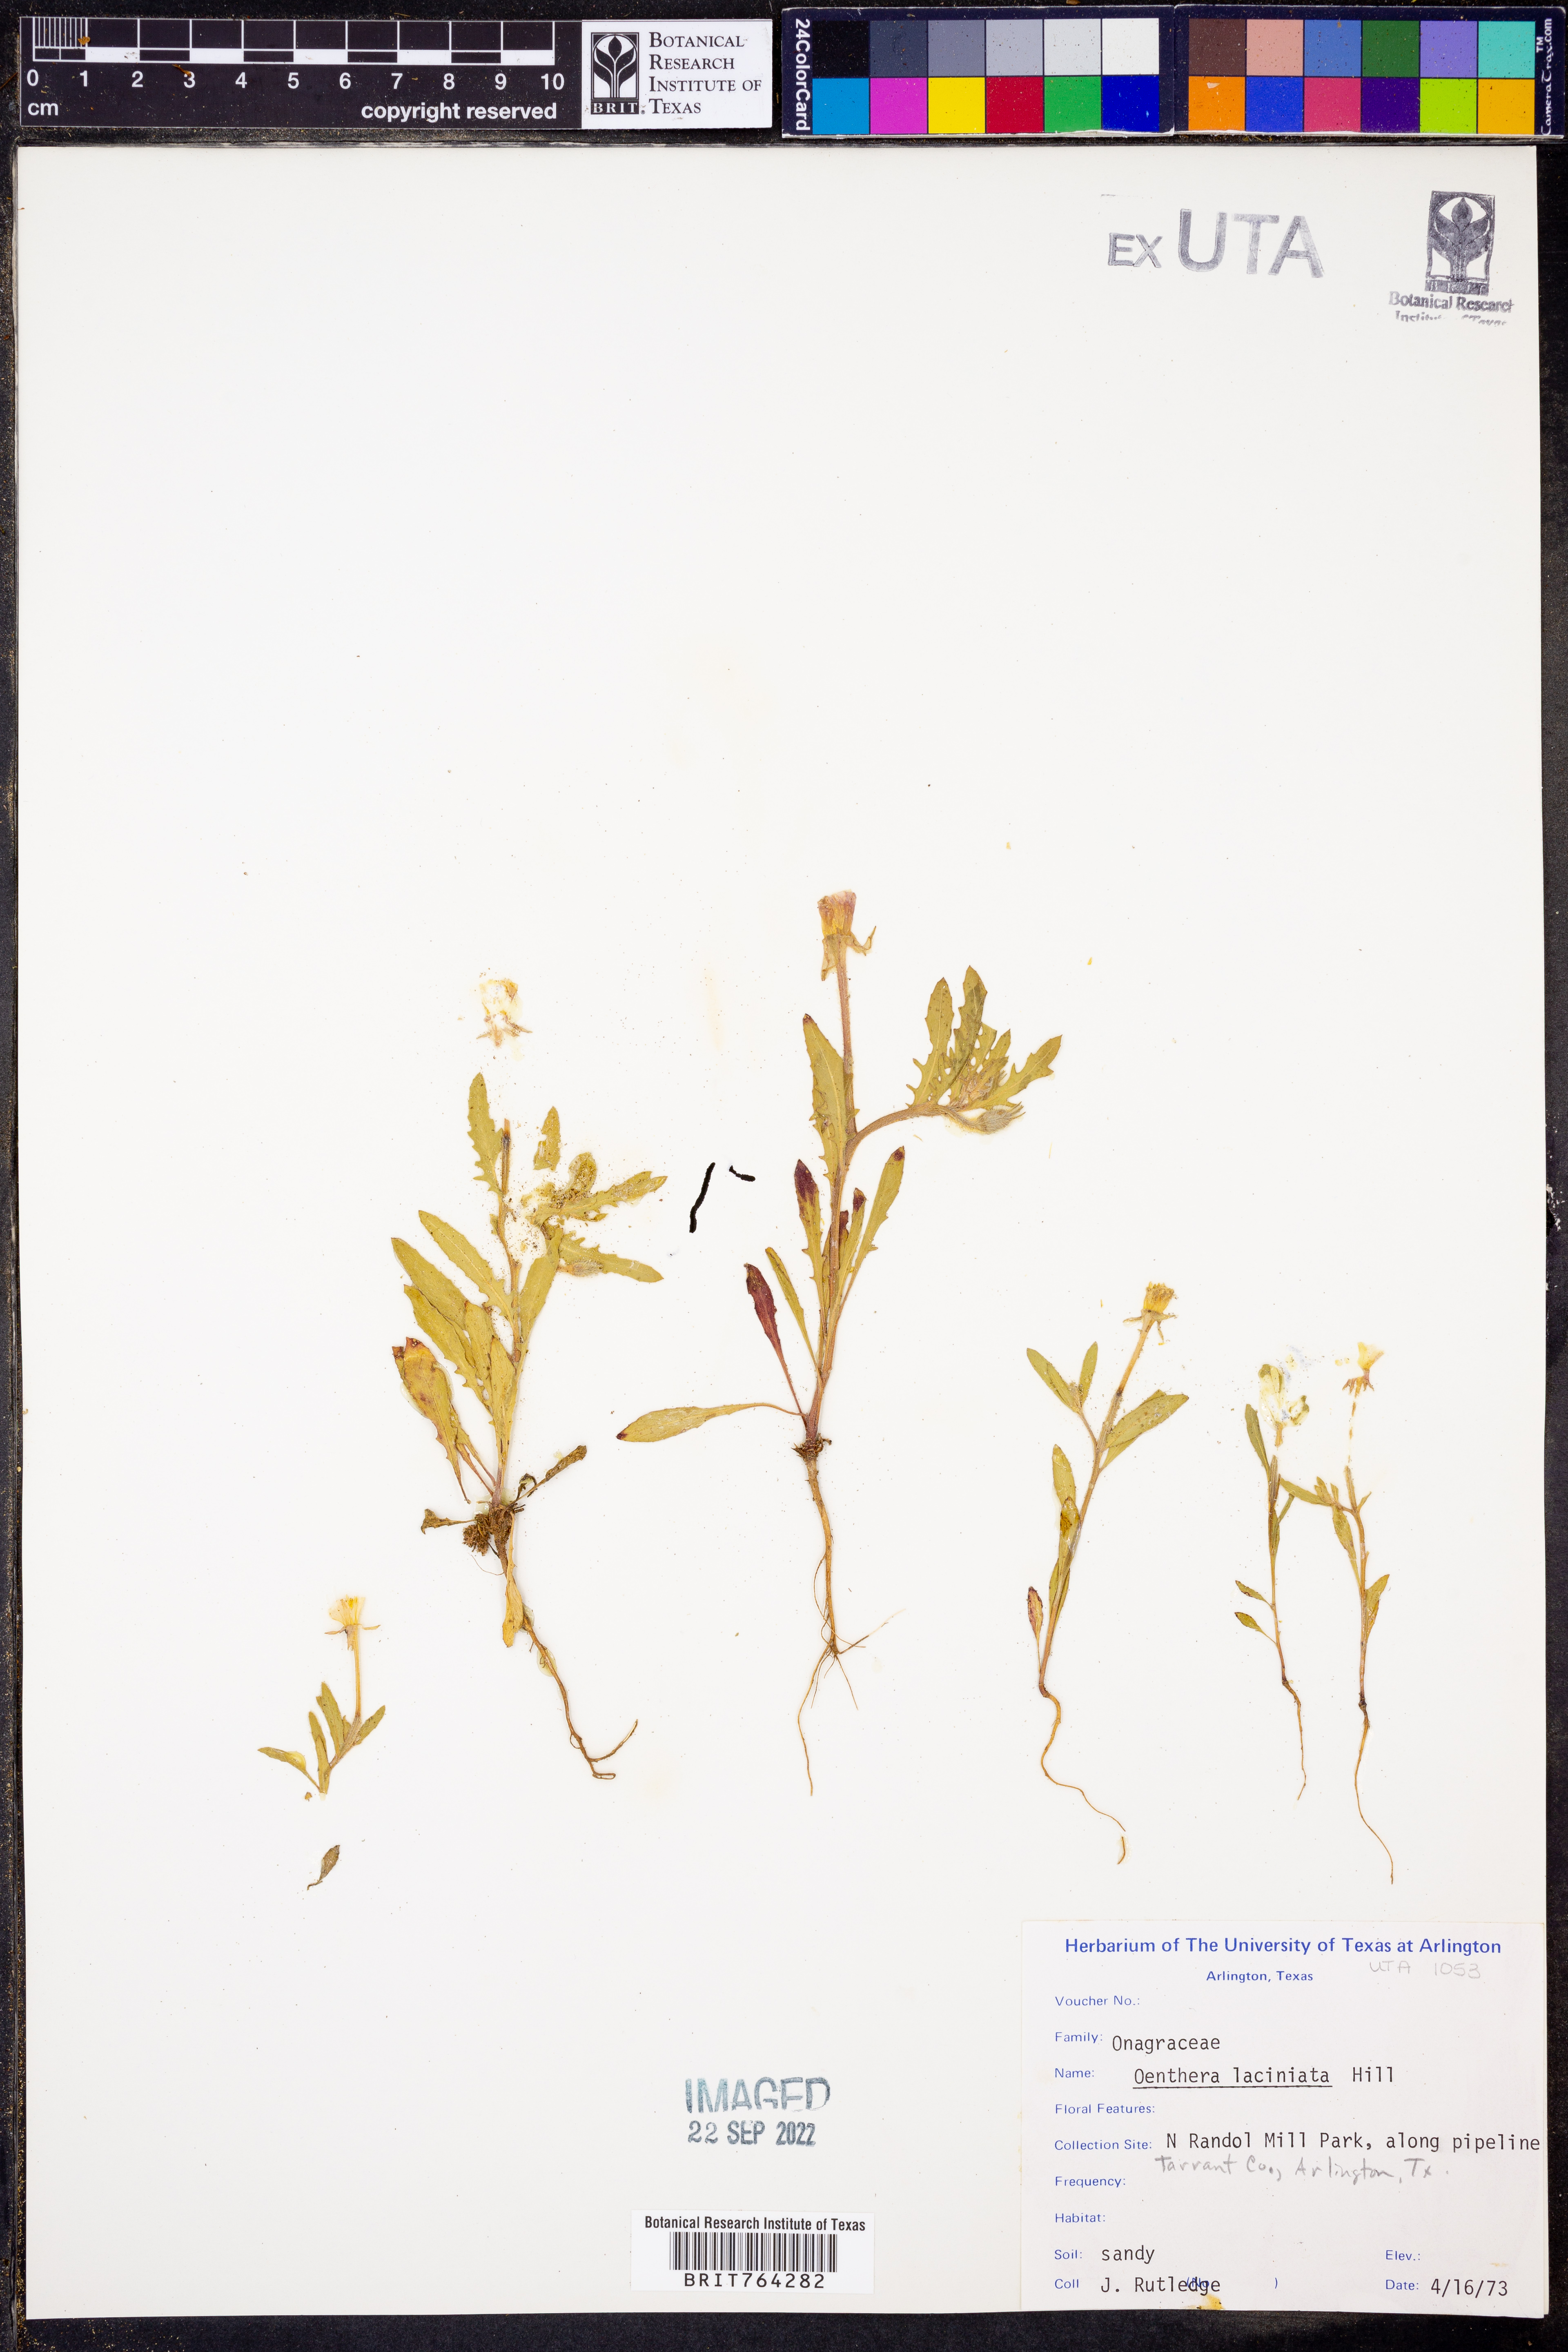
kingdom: Plantae
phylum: Tracheophyta
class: Magnoliopsida
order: Myrtales
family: Onagraceae
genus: Oenothera
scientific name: Oenothera laciniata
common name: Cut-leaved evening-primrose
